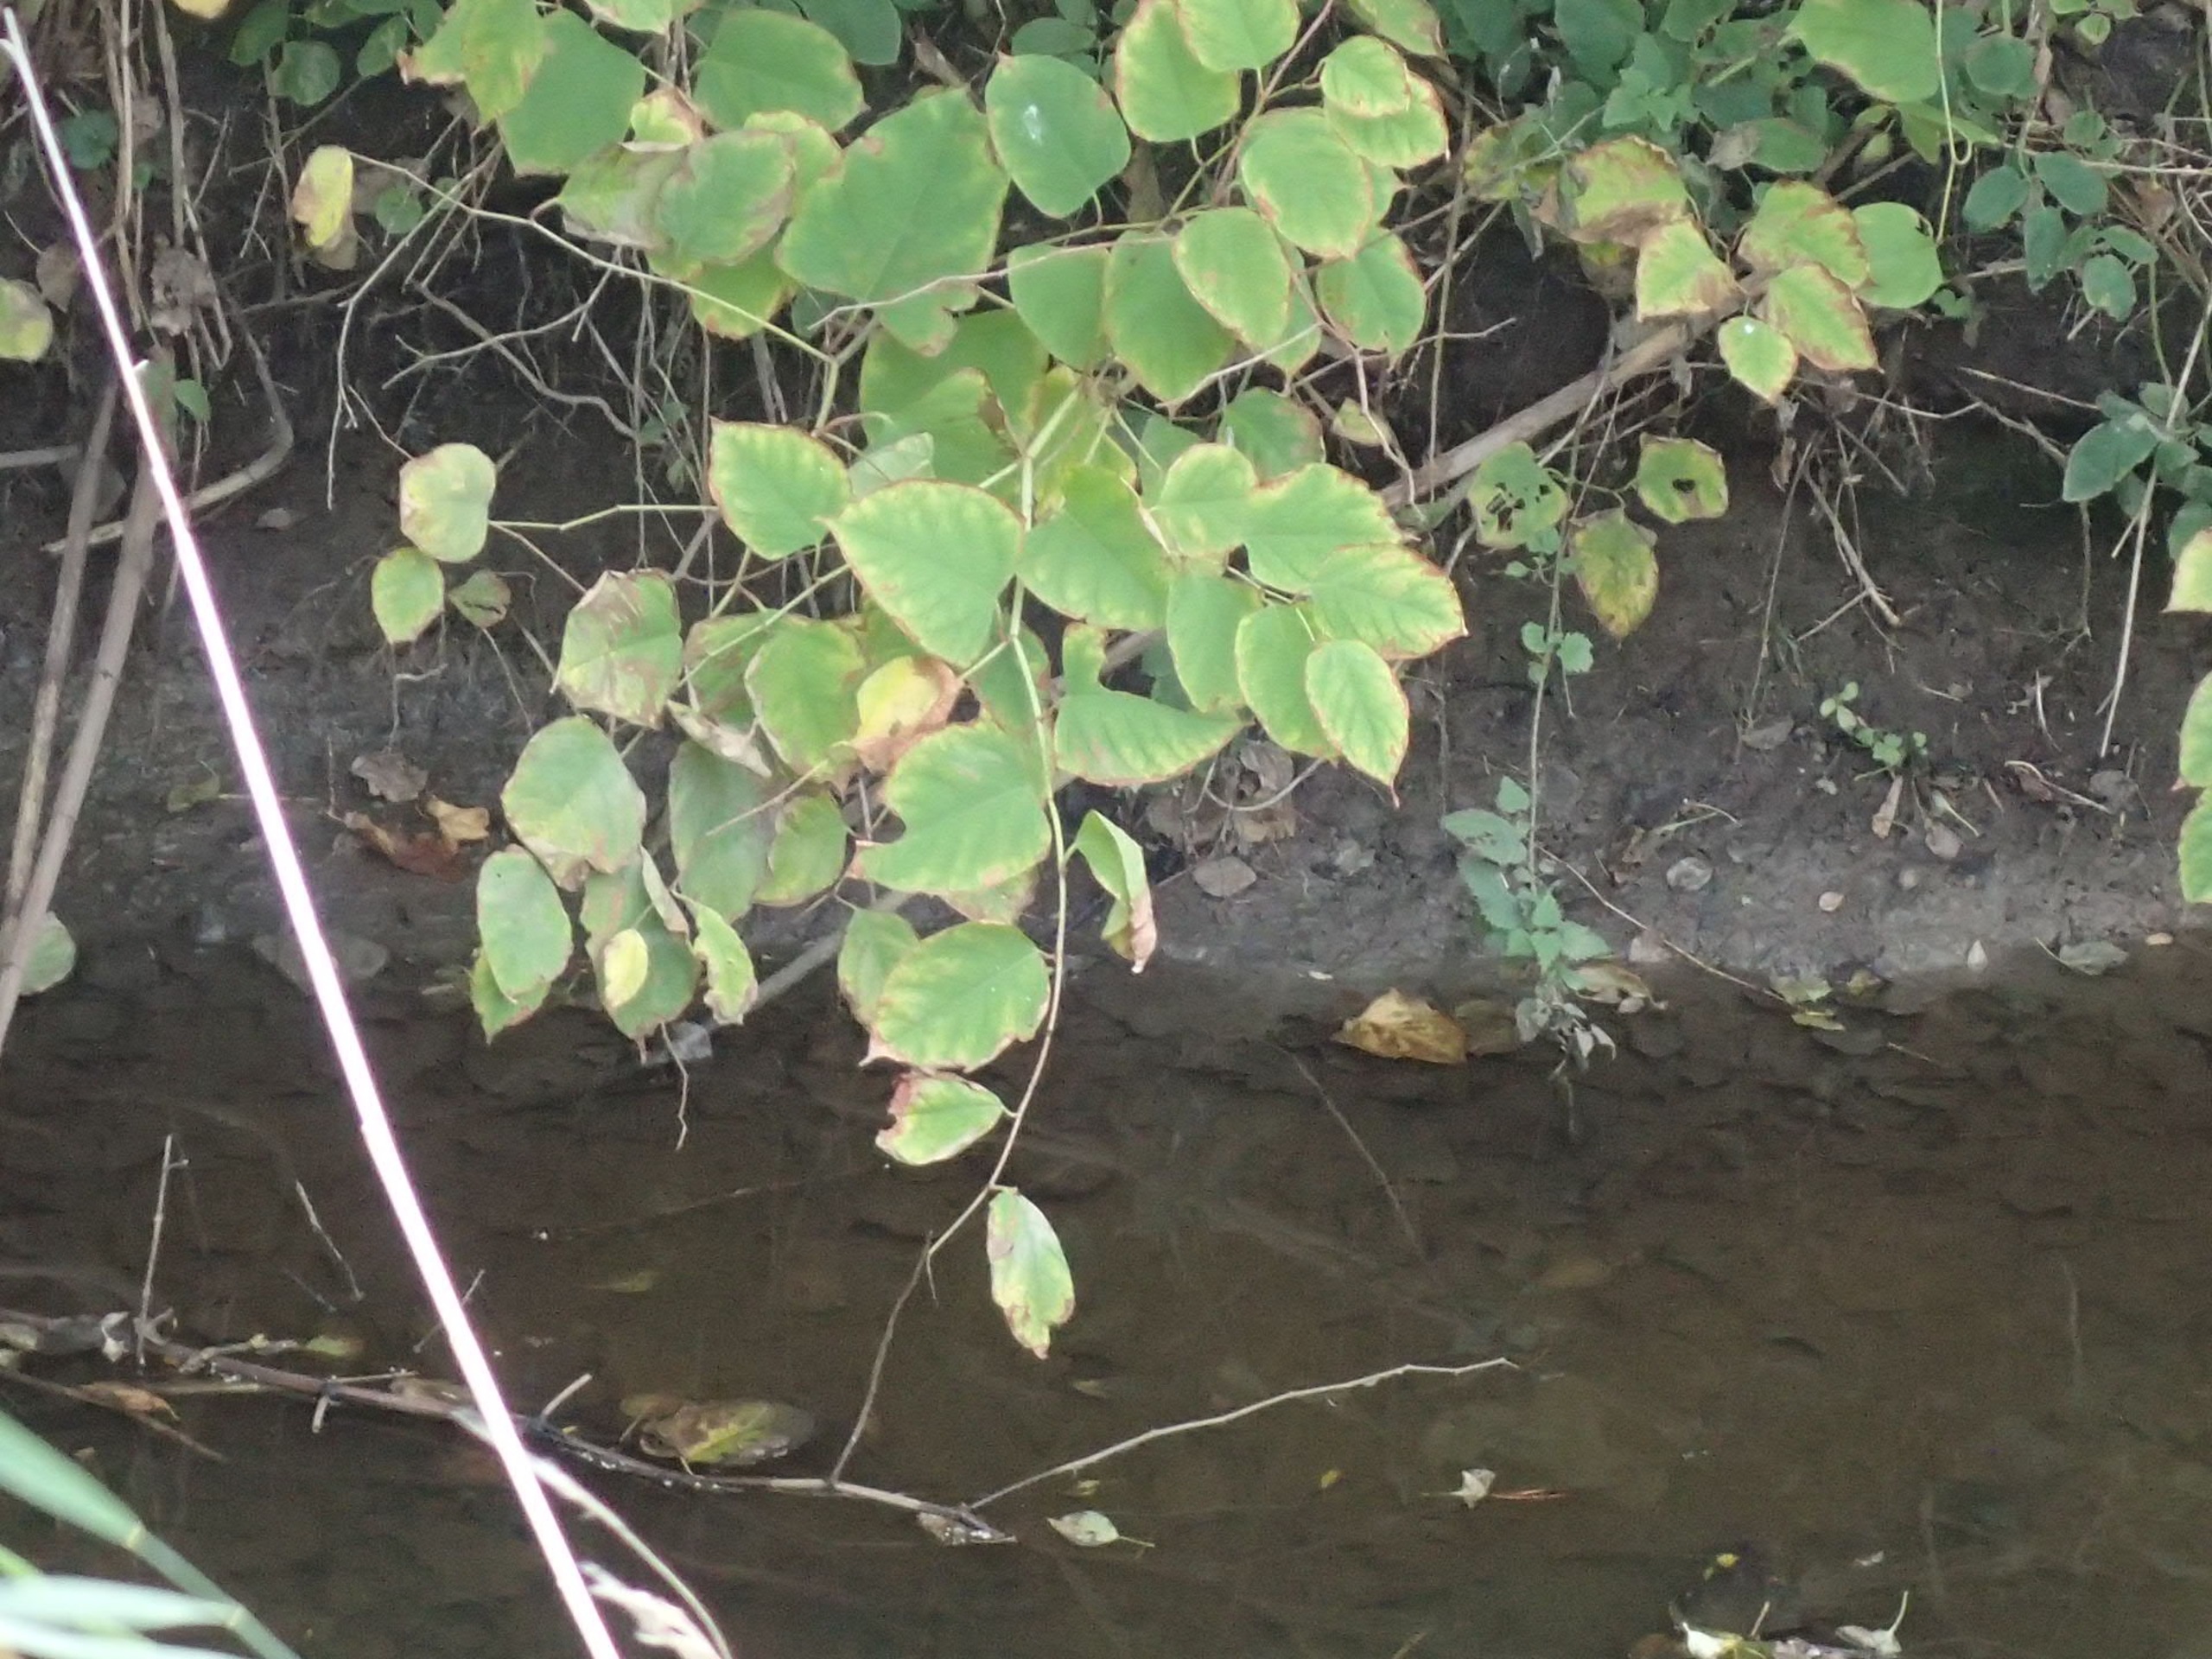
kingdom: Plantae
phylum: Tracheophyta
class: Magnoliopsida
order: Caryophyllales
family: Polygonaceae
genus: Reynoutria
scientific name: Reynoutria japonica
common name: Japan-pileurt
